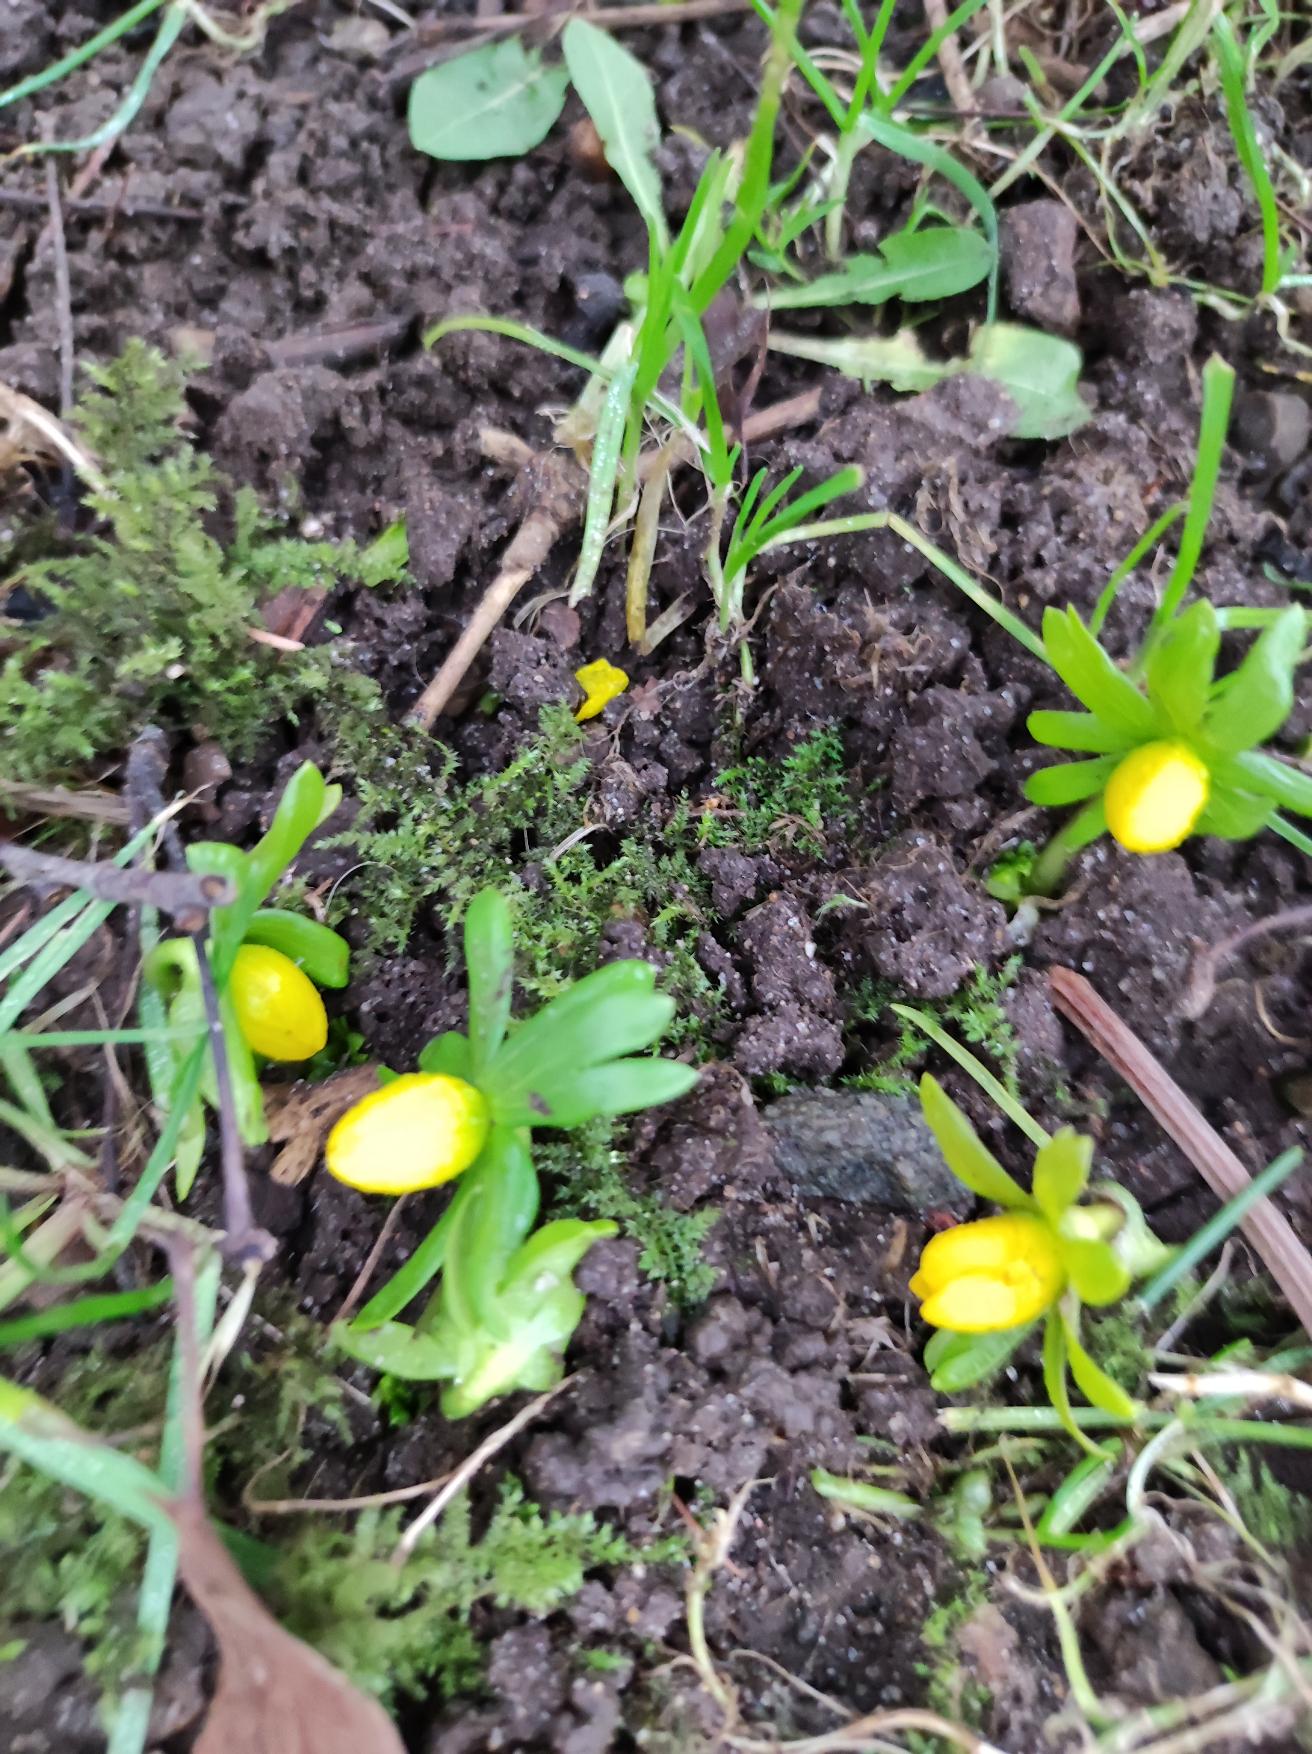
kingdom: Plantae
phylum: Tracheophyta
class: Magnoliopsida
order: Ranunculales
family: Ranunculaceae
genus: Eranthis
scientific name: Eranthis hyemalis
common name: Erantis
